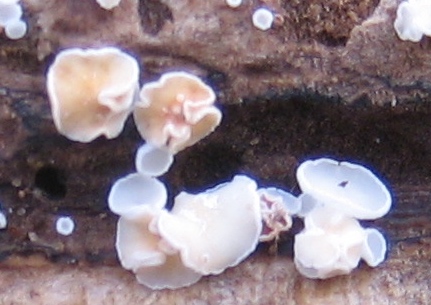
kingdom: Fungi
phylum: Ascomycota
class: Leotiomycetes
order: Helotiales
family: Lachnaceae
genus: Lachnum
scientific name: Lachnum
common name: frynseskive
